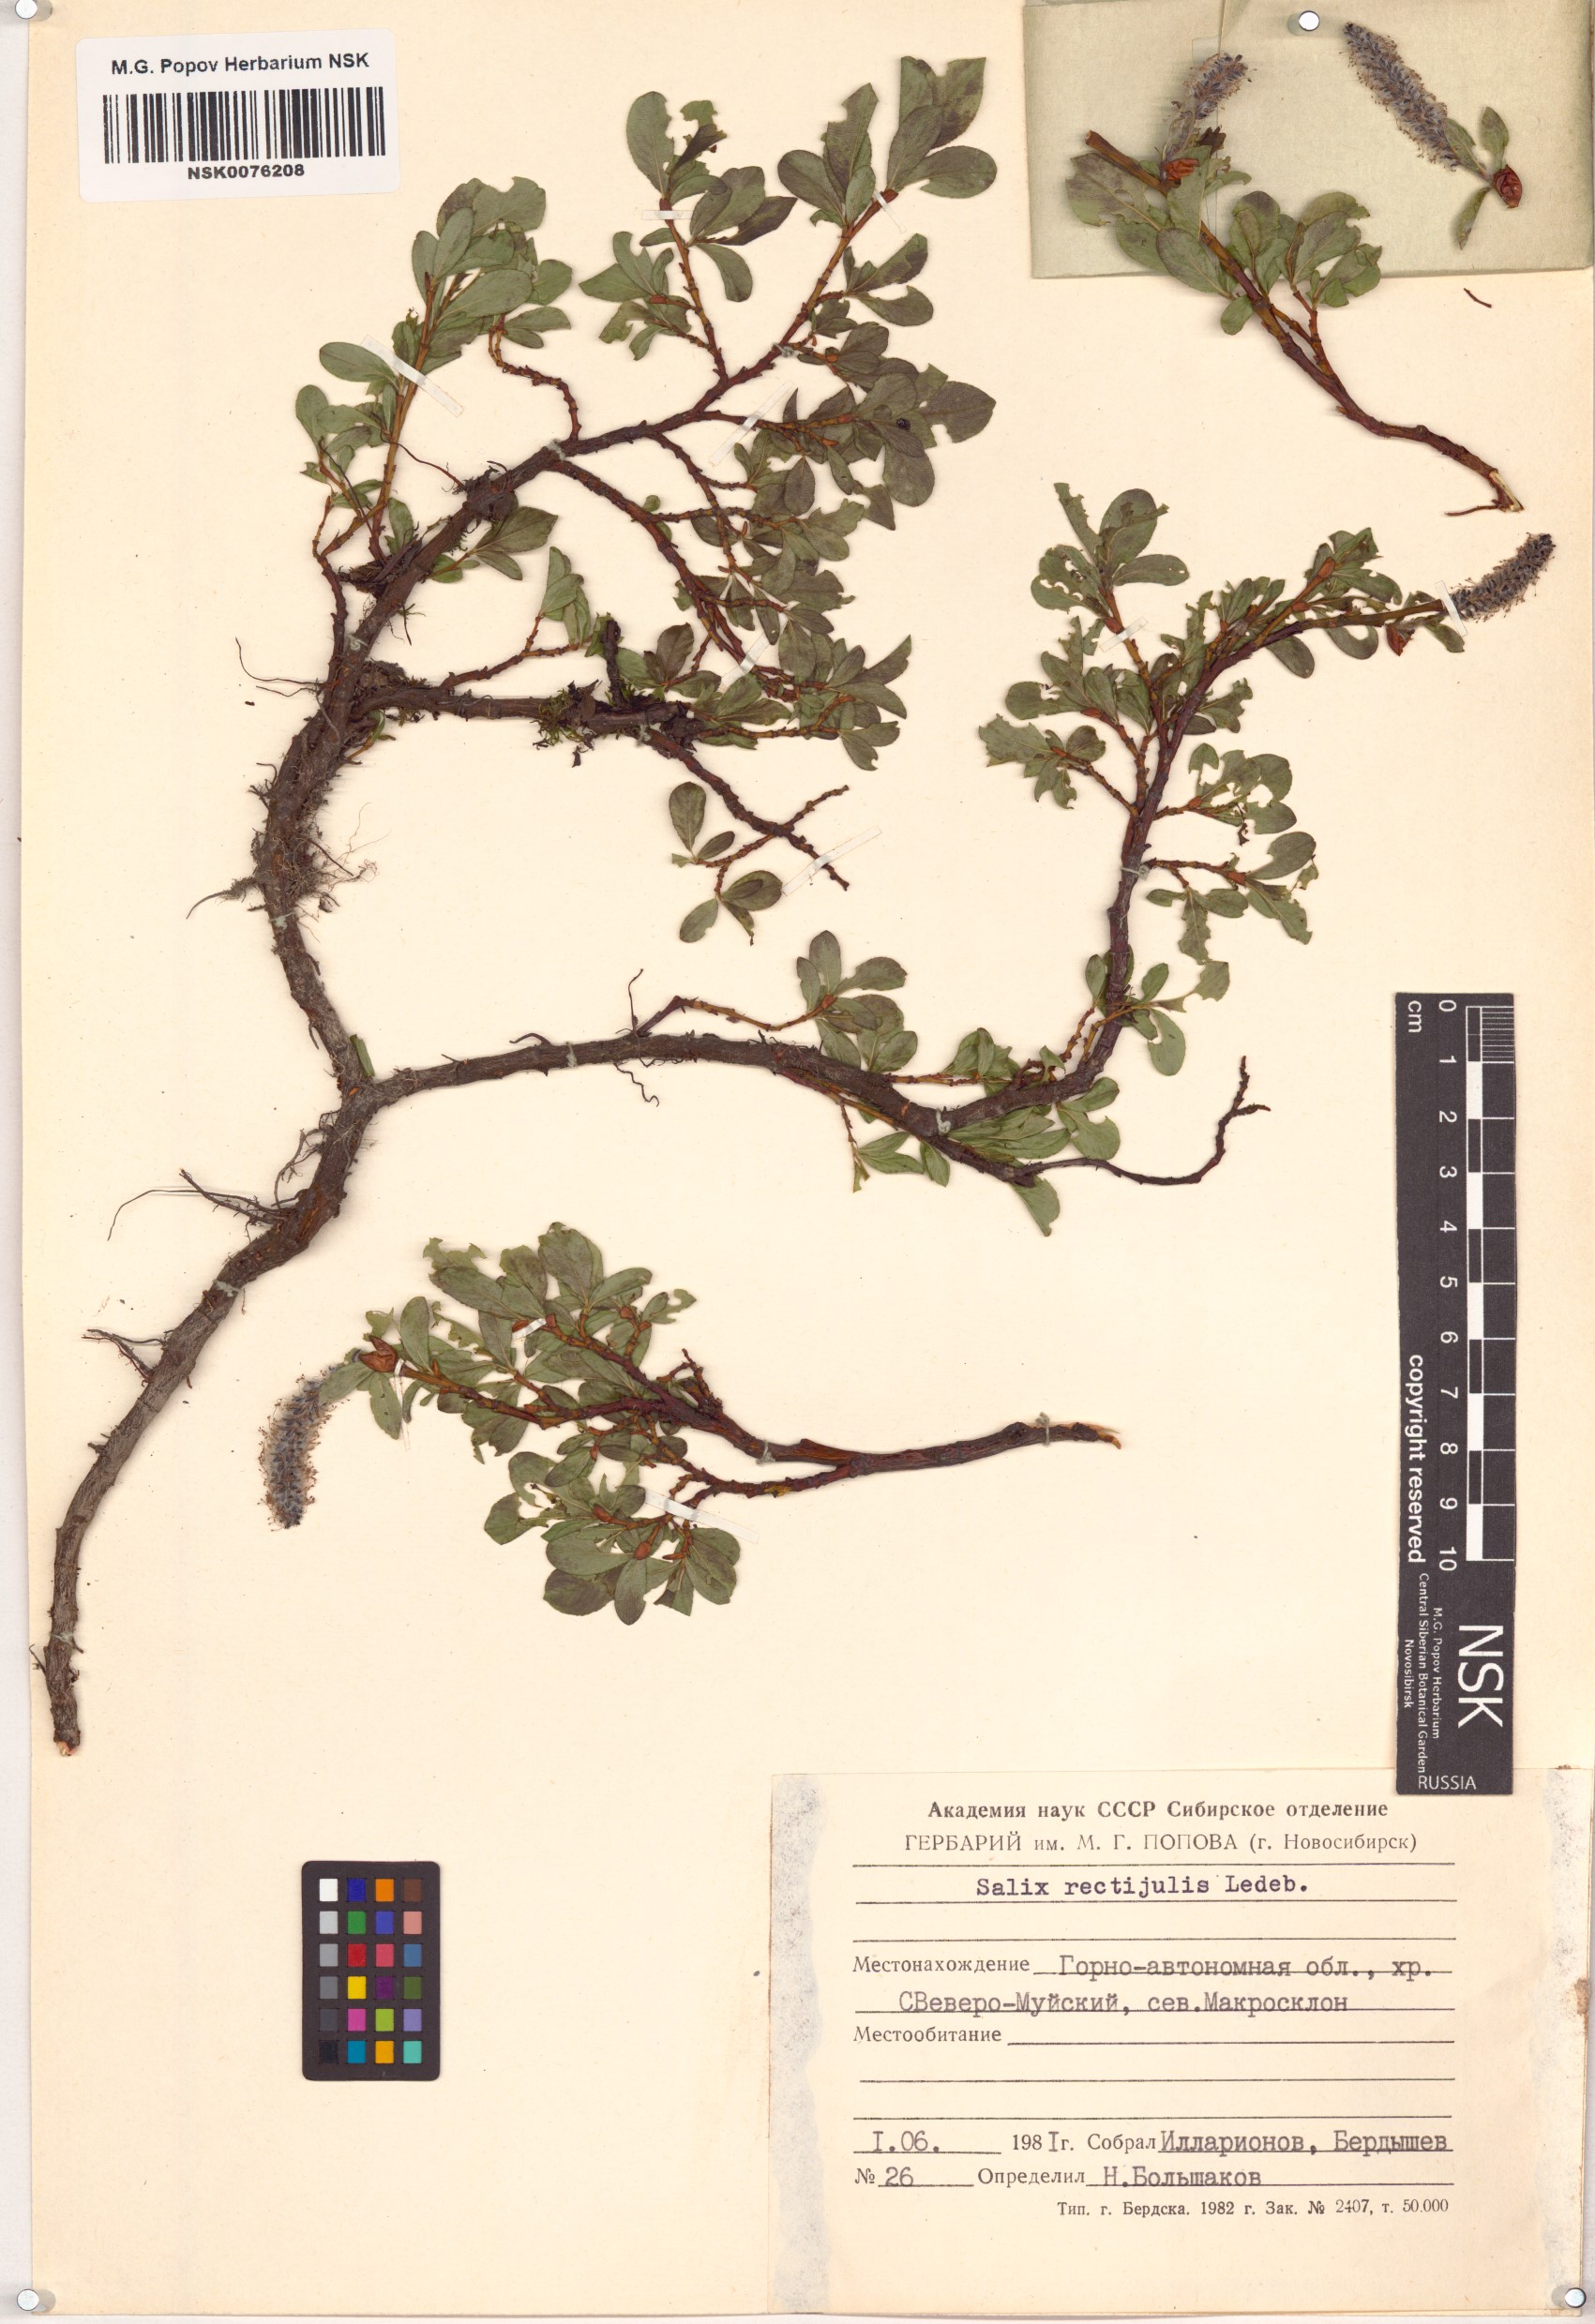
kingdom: Plantae
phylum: Tracheophyta
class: Magnoliopsida
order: Malpighiales
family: Salicaceae
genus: Salix
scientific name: Salix rectijulis
